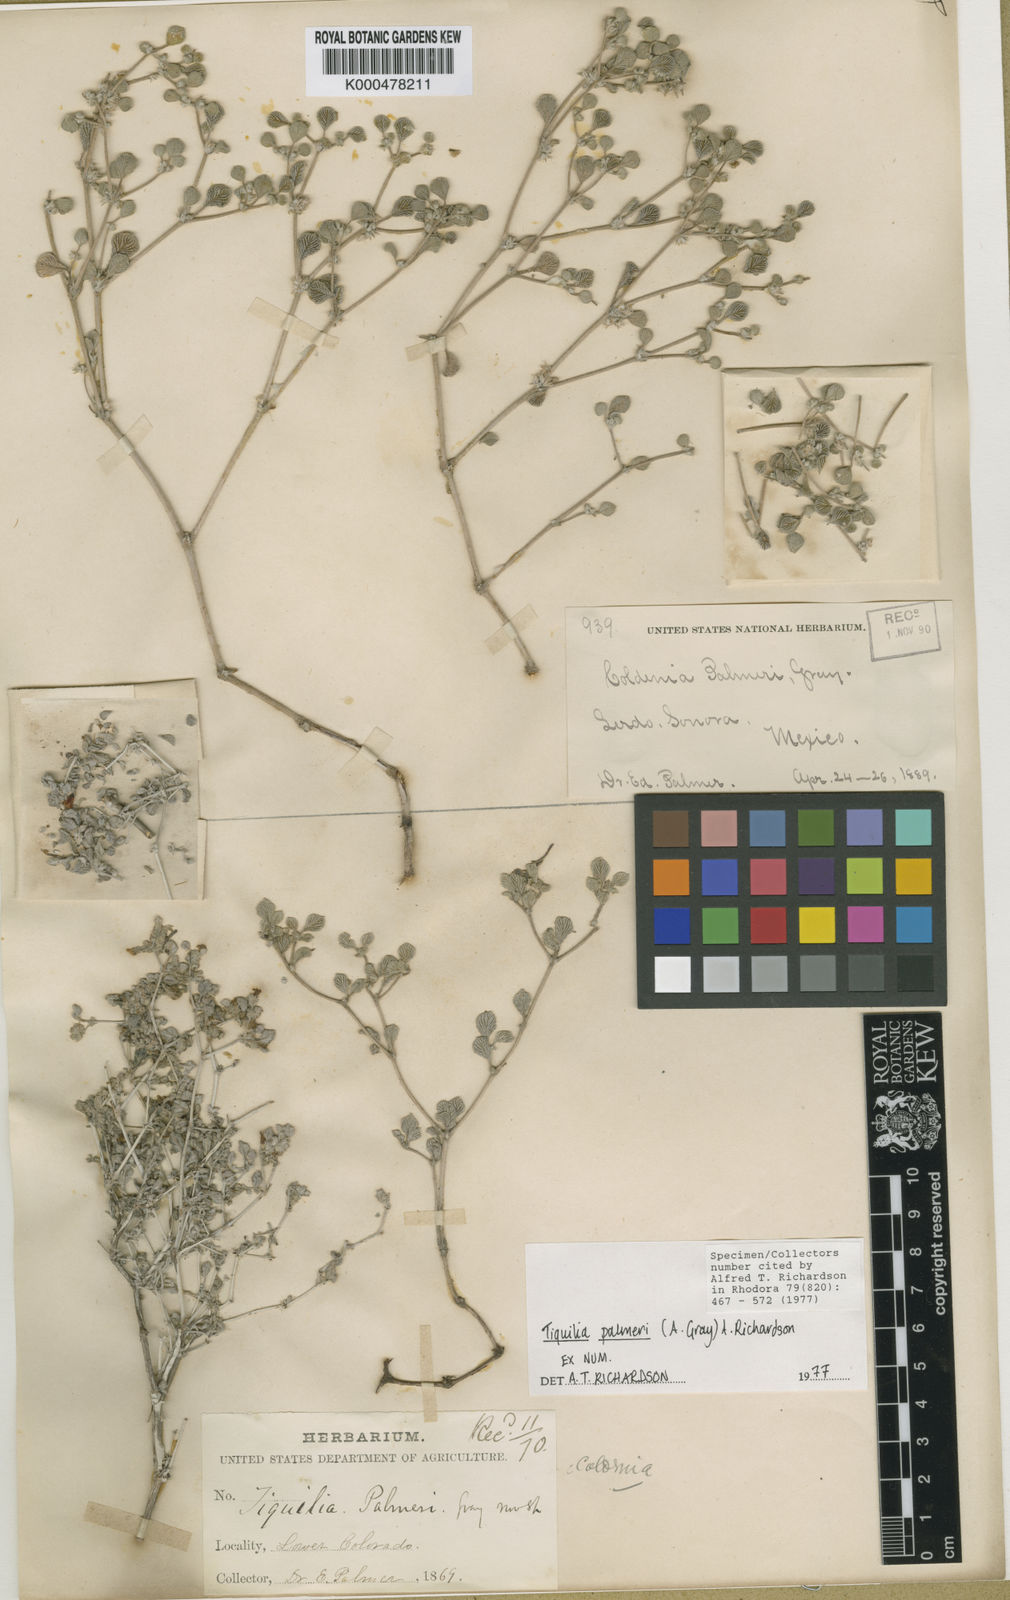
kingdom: Plantae
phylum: Tracheophyta
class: Magnoliopsida
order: Boraginales
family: Ehretiaceae
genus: Tiquilia
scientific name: Tiquilia palmeri
